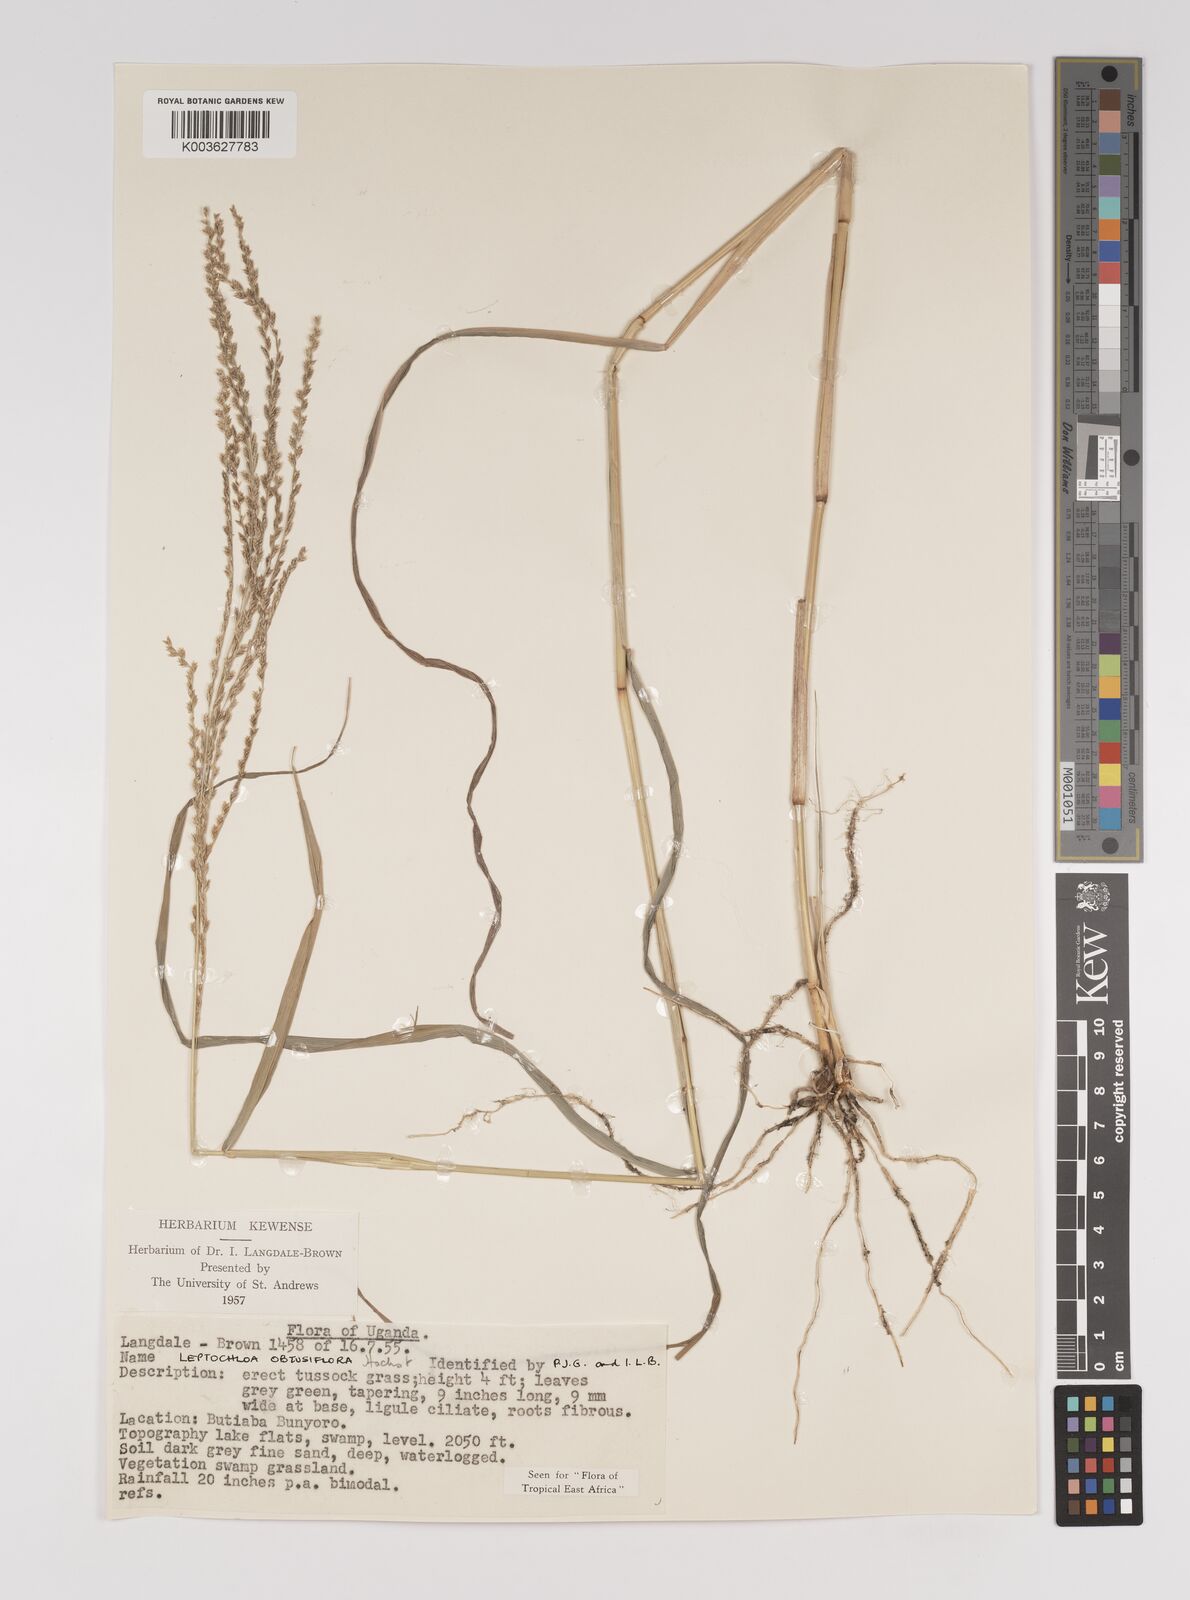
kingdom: Plantae
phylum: Tracheophyta
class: Liliopsida
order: Poales
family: Poaceae
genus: Disakisperma
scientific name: Disakisperma obtusiflorum
